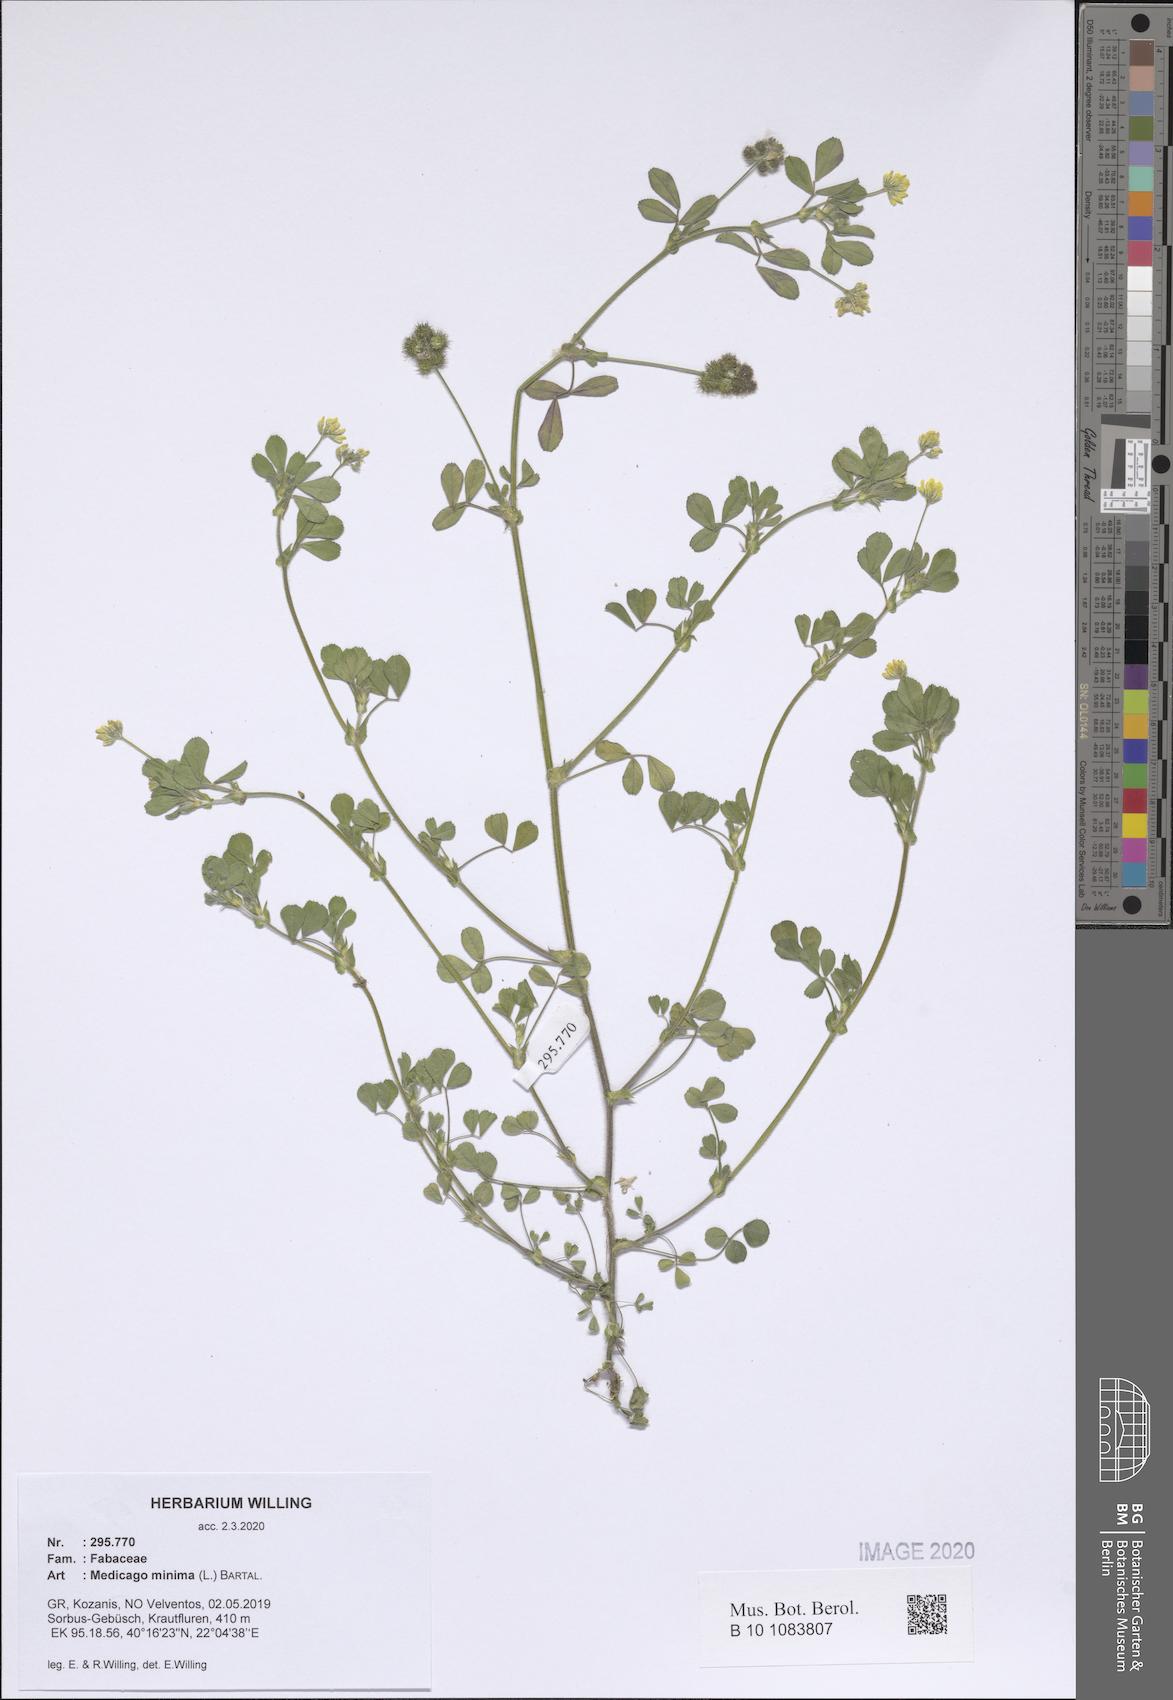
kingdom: Plantae
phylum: Tracheophyta
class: Magnoliopsida
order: Fabales
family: Fabaceae
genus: Medicago
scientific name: Medicago minima
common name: Little bur-clover
